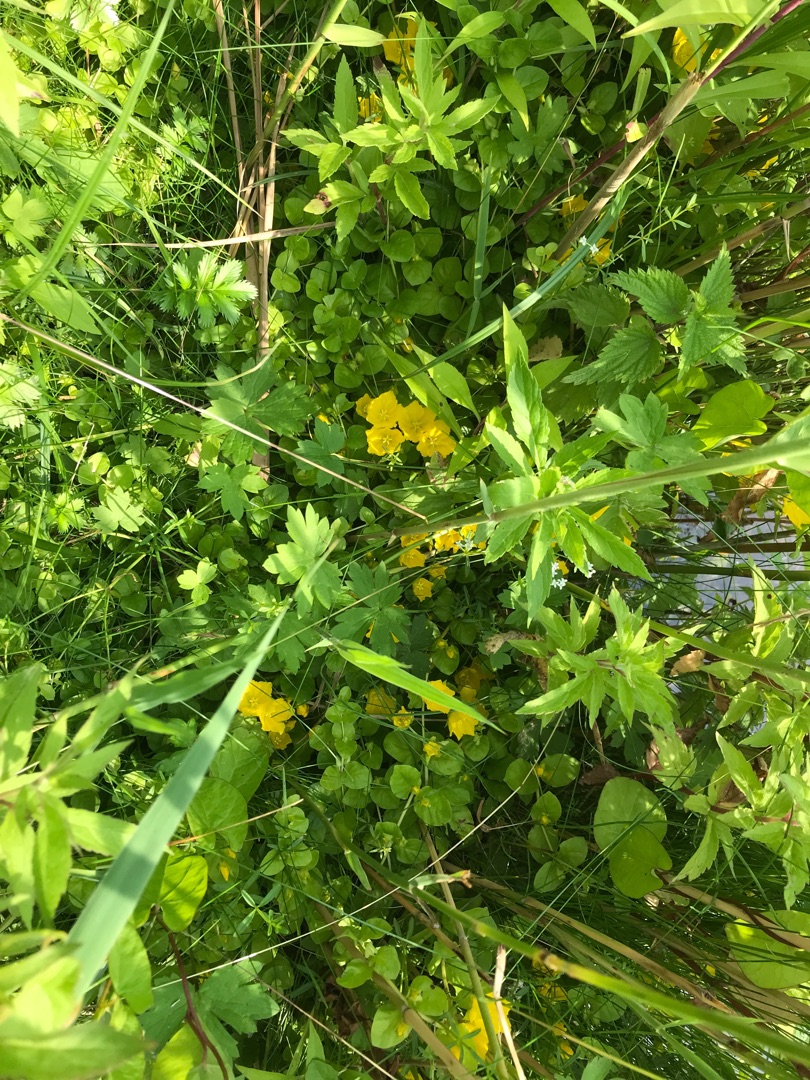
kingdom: Plantae
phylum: Tracheophyta
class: Magnoliopsida
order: Ericales
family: Primulaceae
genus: Lysimachia
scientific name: Lysimachia nummularia
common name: Pengebladet fredløs
